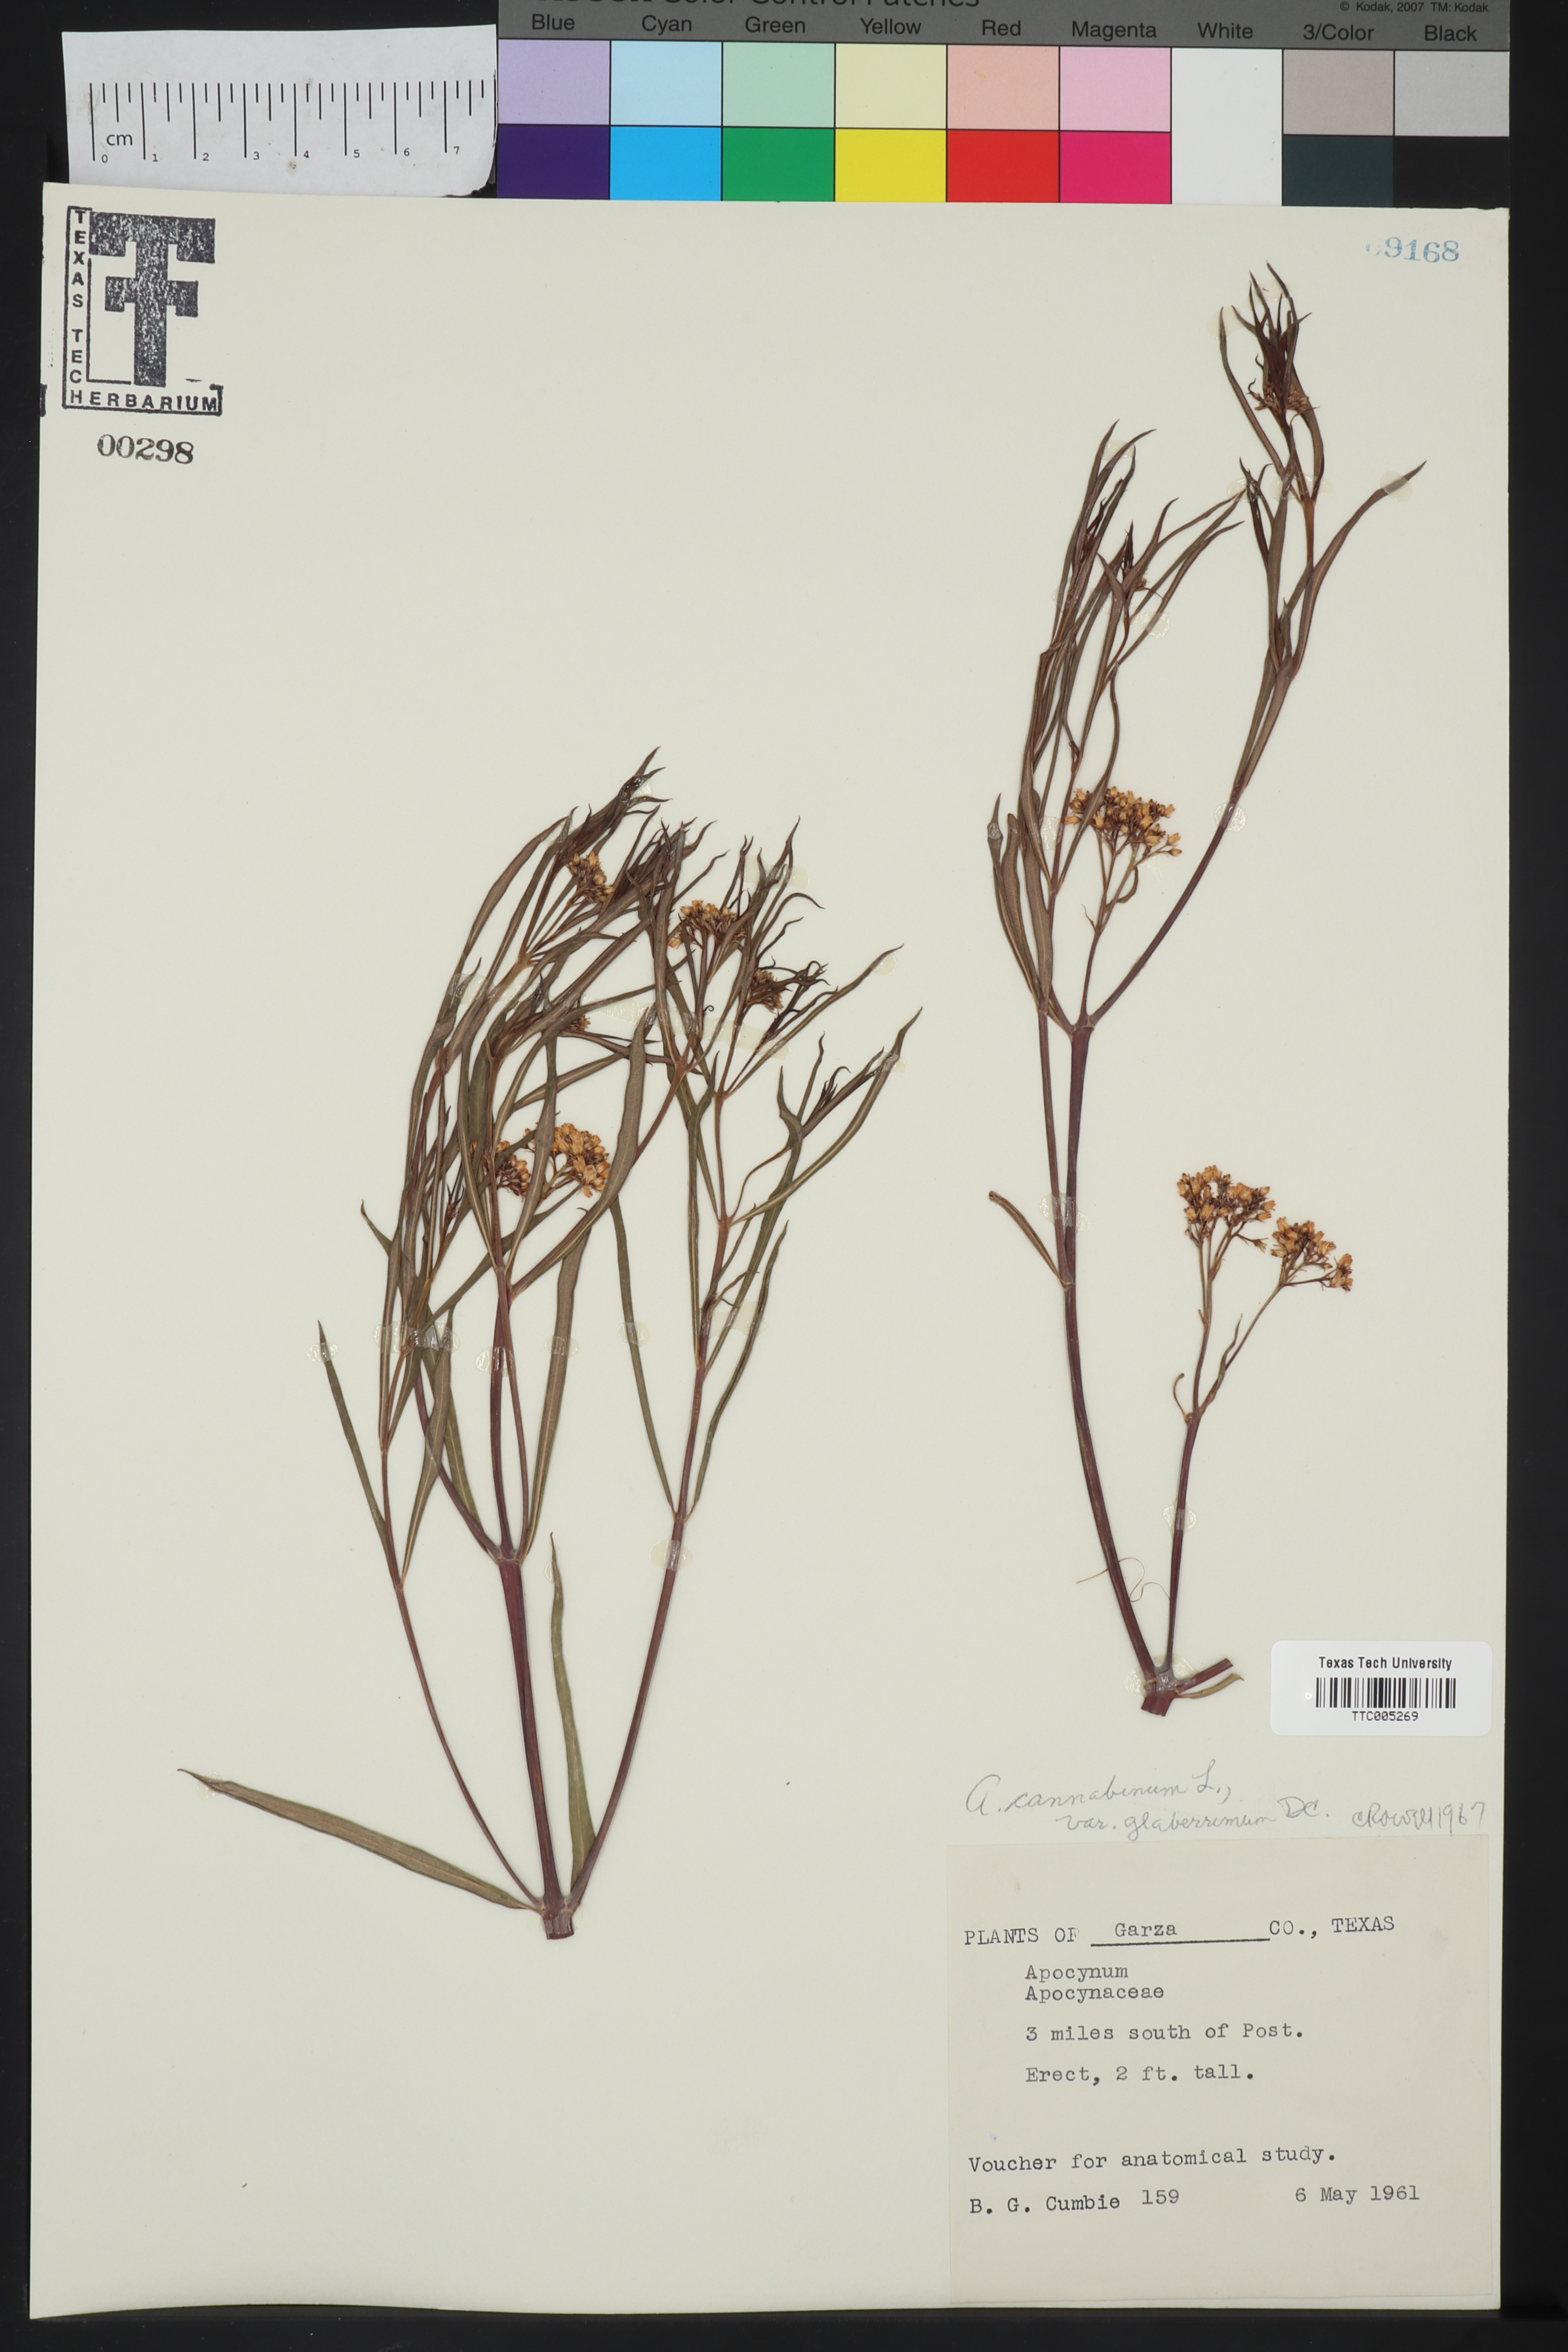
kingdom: Plantae
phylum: Tracheophyta
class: Magnoliopsida
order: Gentianales
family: Apocynaceae
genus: Apocynum
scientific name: Apocynum cannabinum
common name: Hemp dogbane
